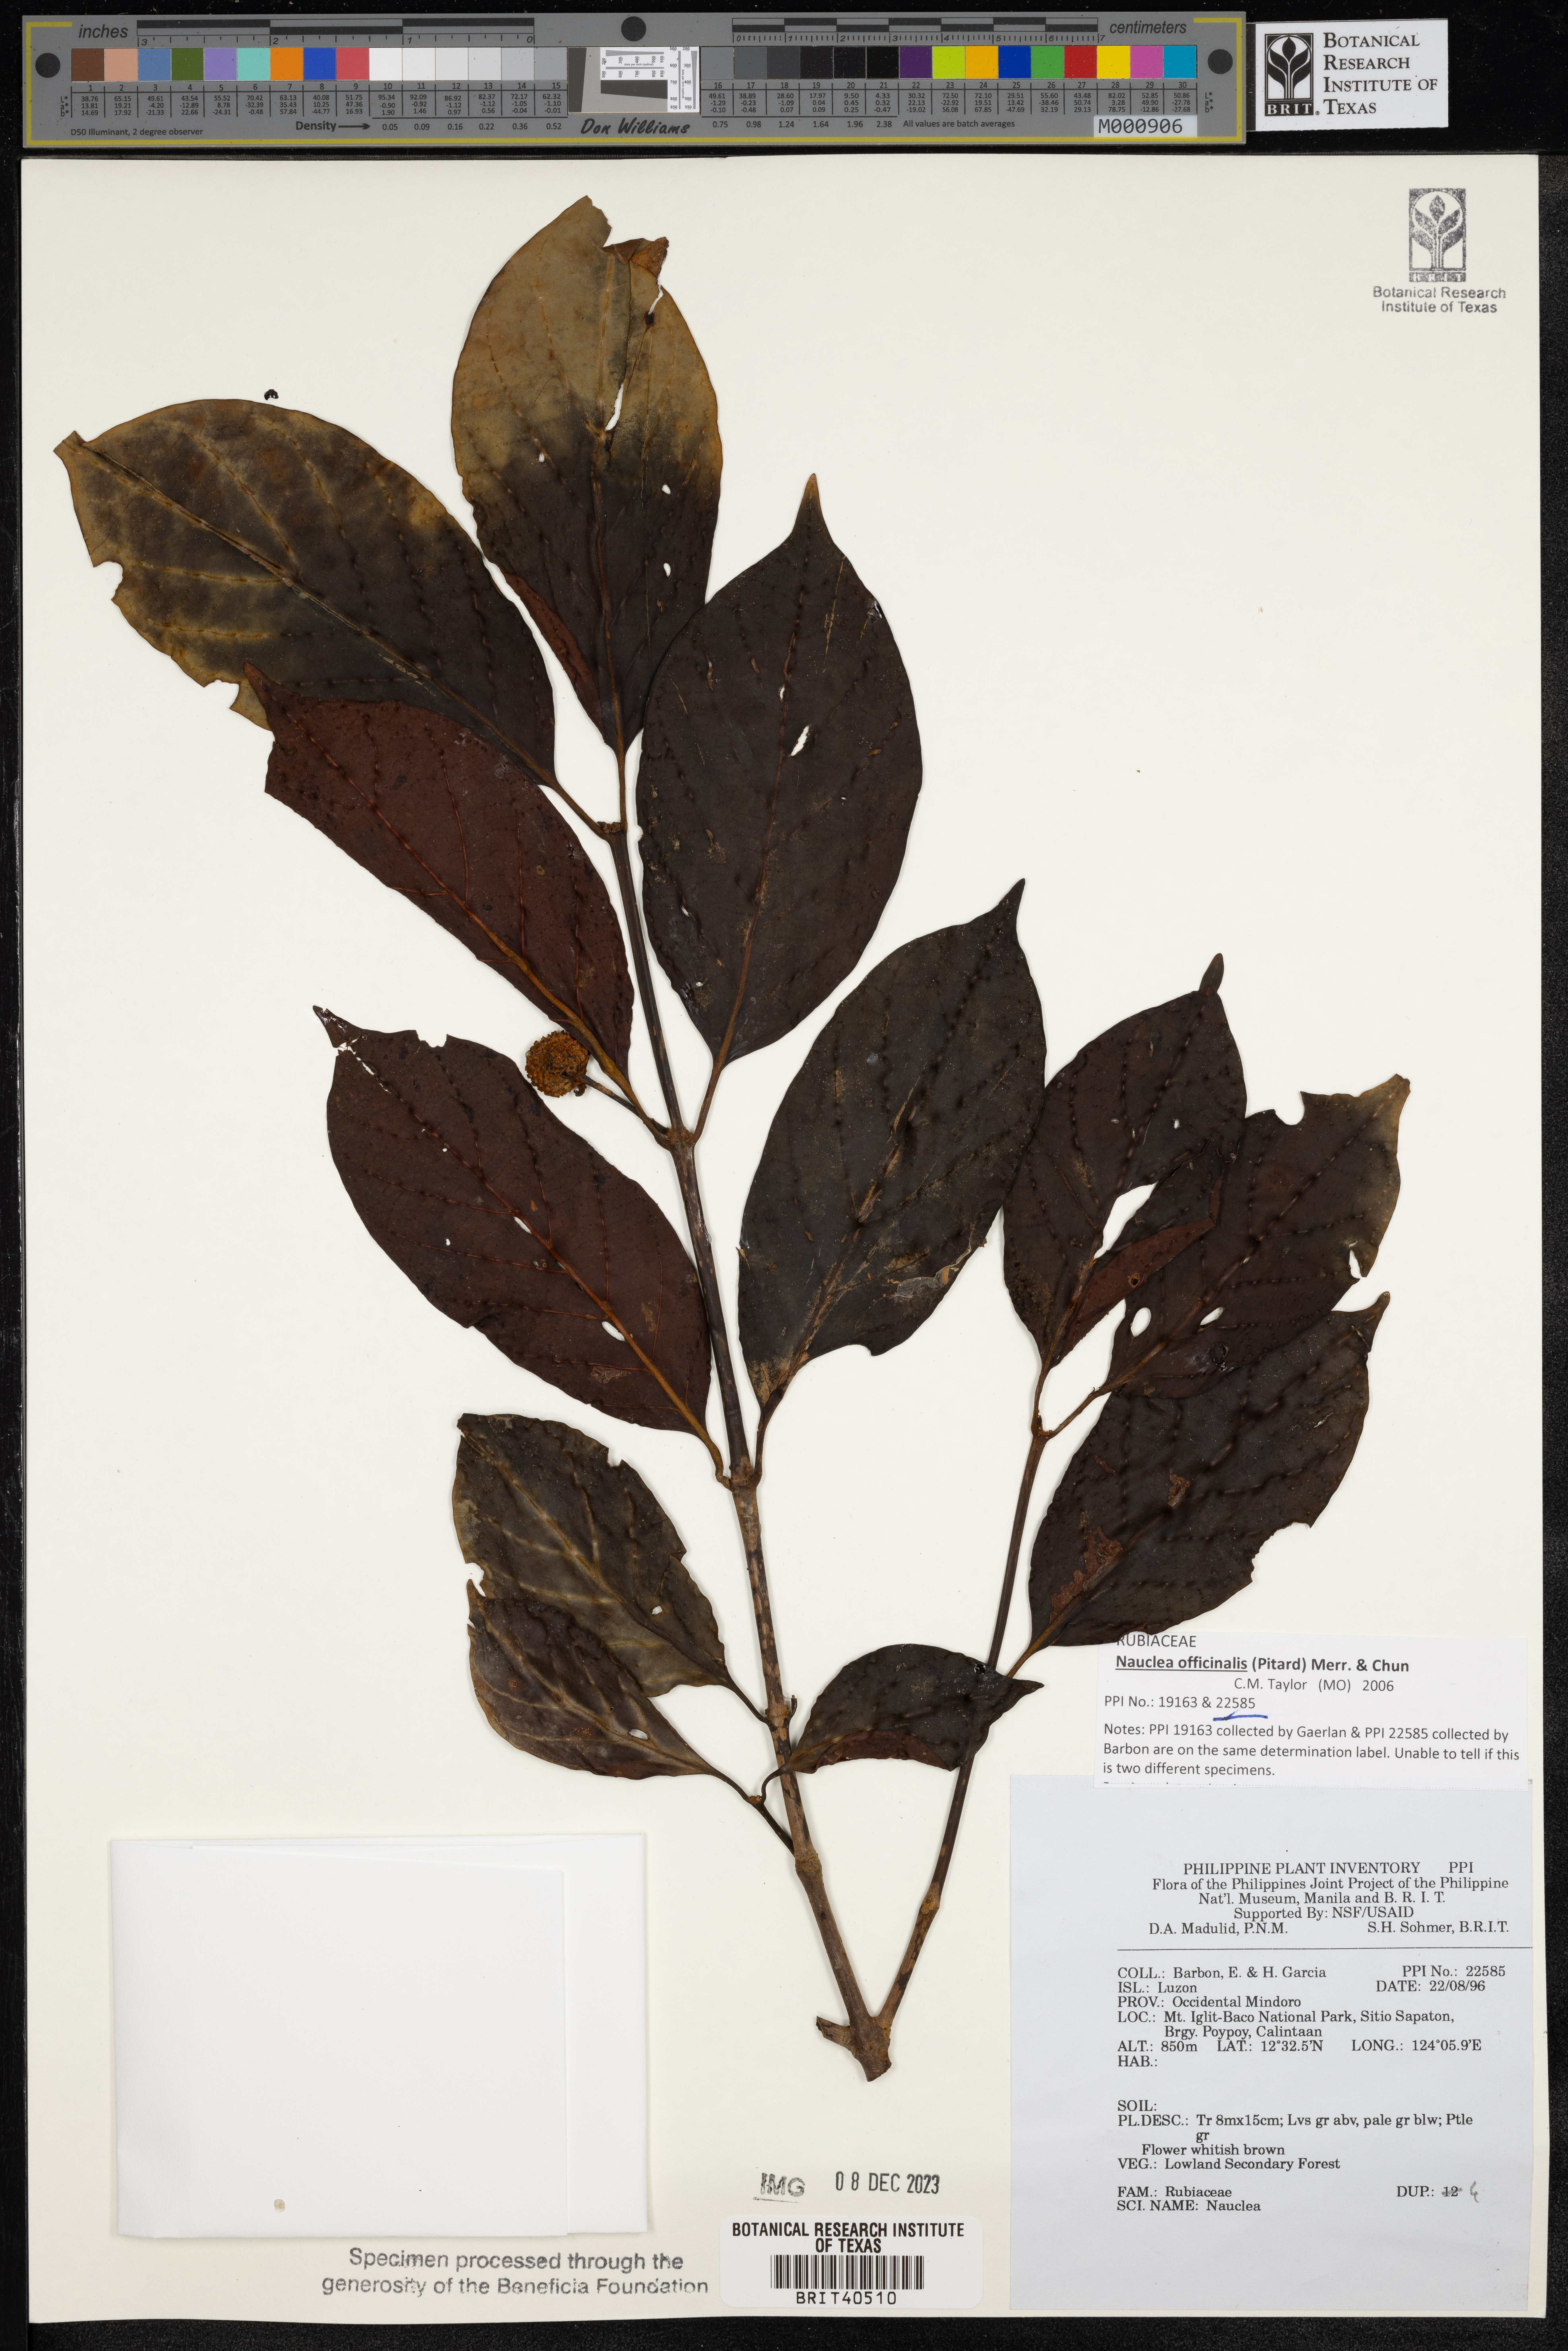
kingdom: Plantae
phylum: Tracheophyta
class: Magnoliopsida
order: Gentianales
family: Rubiaceae
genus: Nauclea
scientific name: Nauclea
